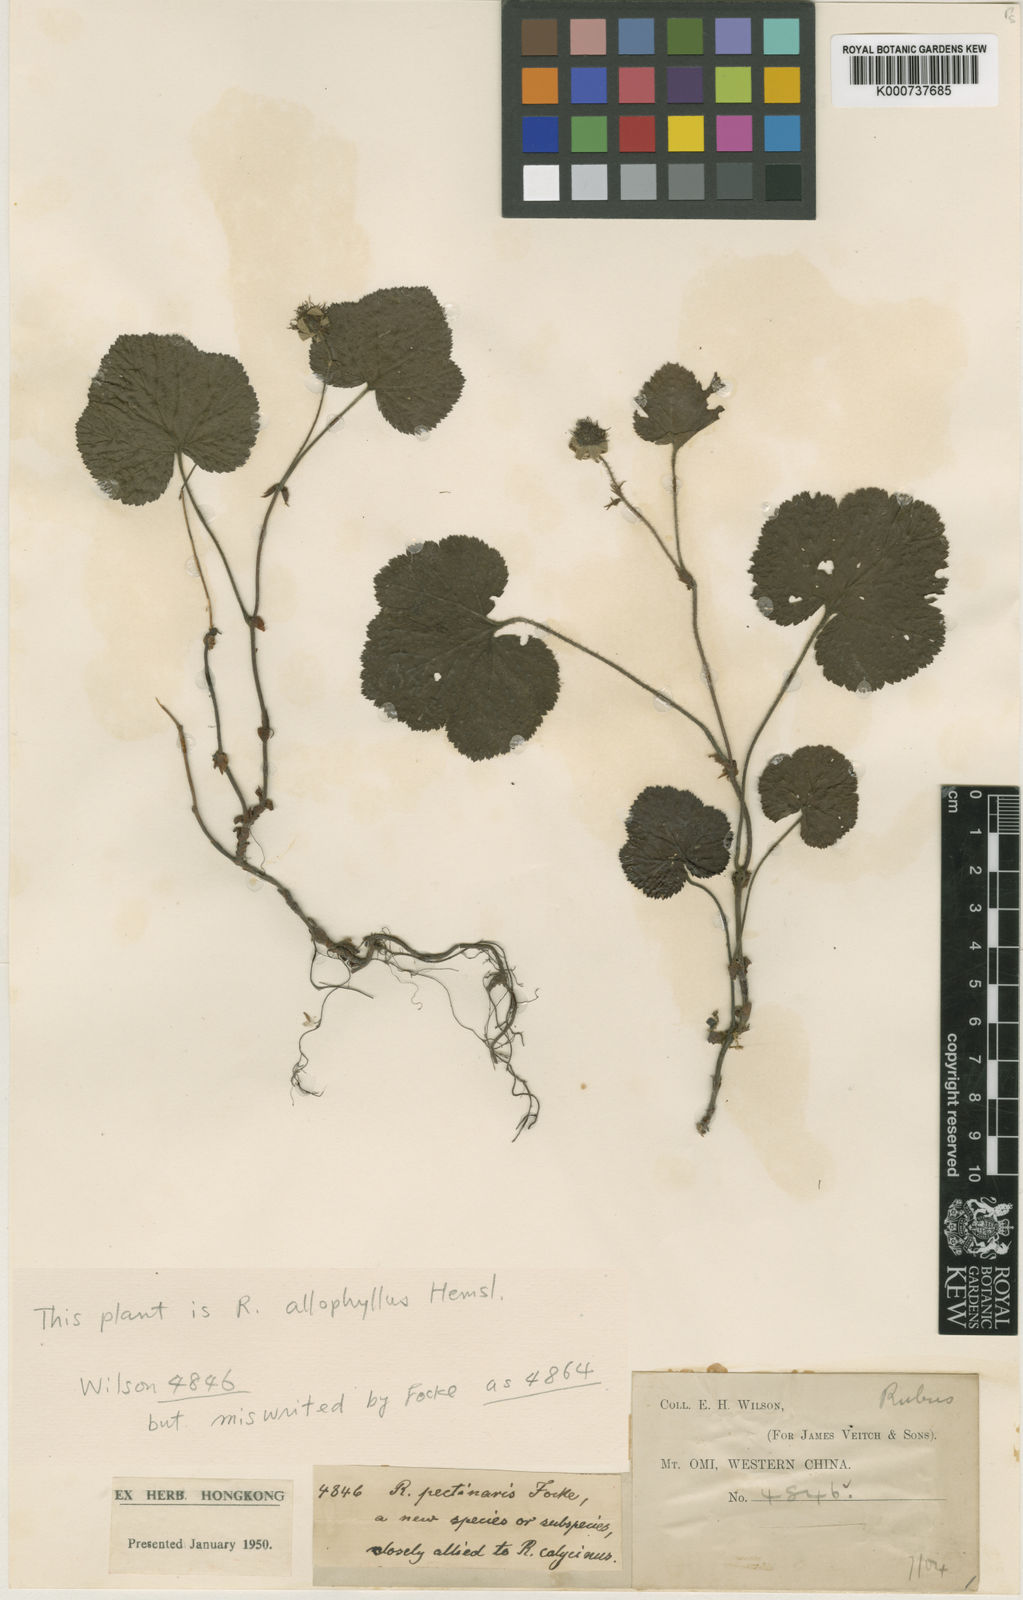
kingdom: Plantae
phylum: Tracheophyta
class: Magnoliopsida
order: Rosales
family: Rosaceae
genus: Rubus
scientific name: Rubus pectinaris
